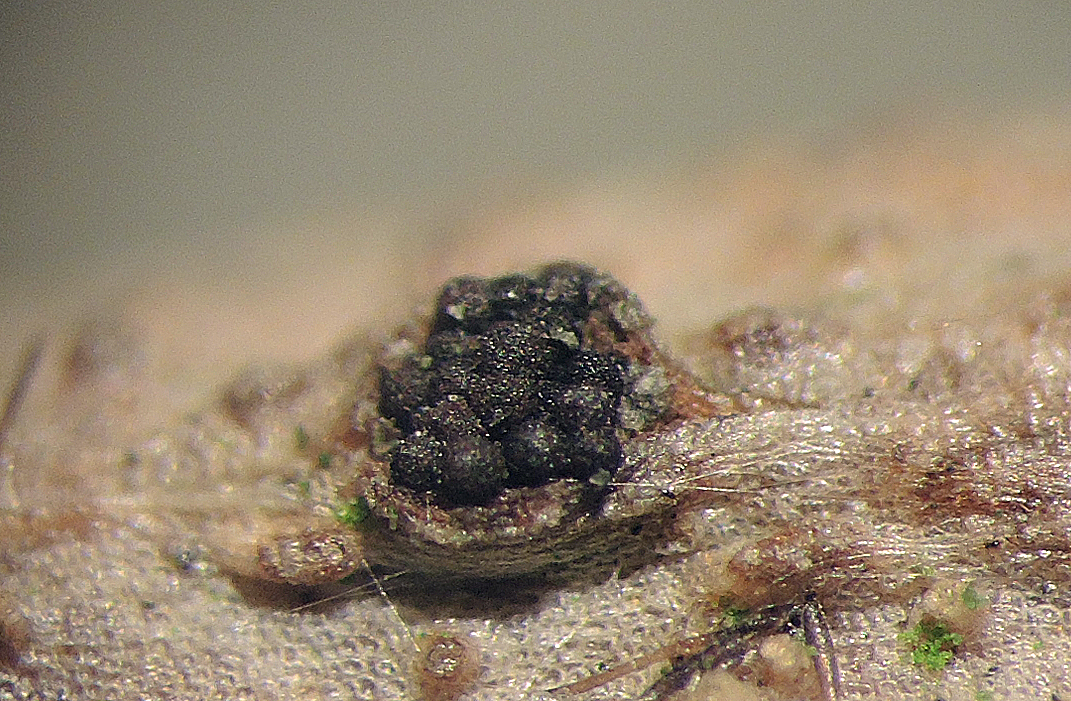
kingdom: Fungi
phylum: Ascomycota
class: Sordariomycetes
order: Hypocreales
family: Nectriaceae
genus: Fusarium
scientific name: Fusarium roseum
